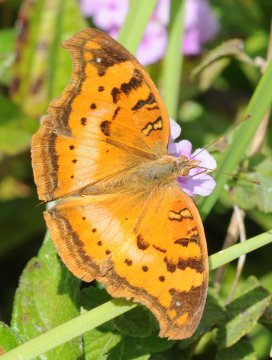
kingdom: Animalia
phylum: Arthropoda
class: Insecta
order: Lepidoptera
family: Nymphalidae
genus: Junonia
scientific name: Junonia cuama
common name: Paler Commodore
